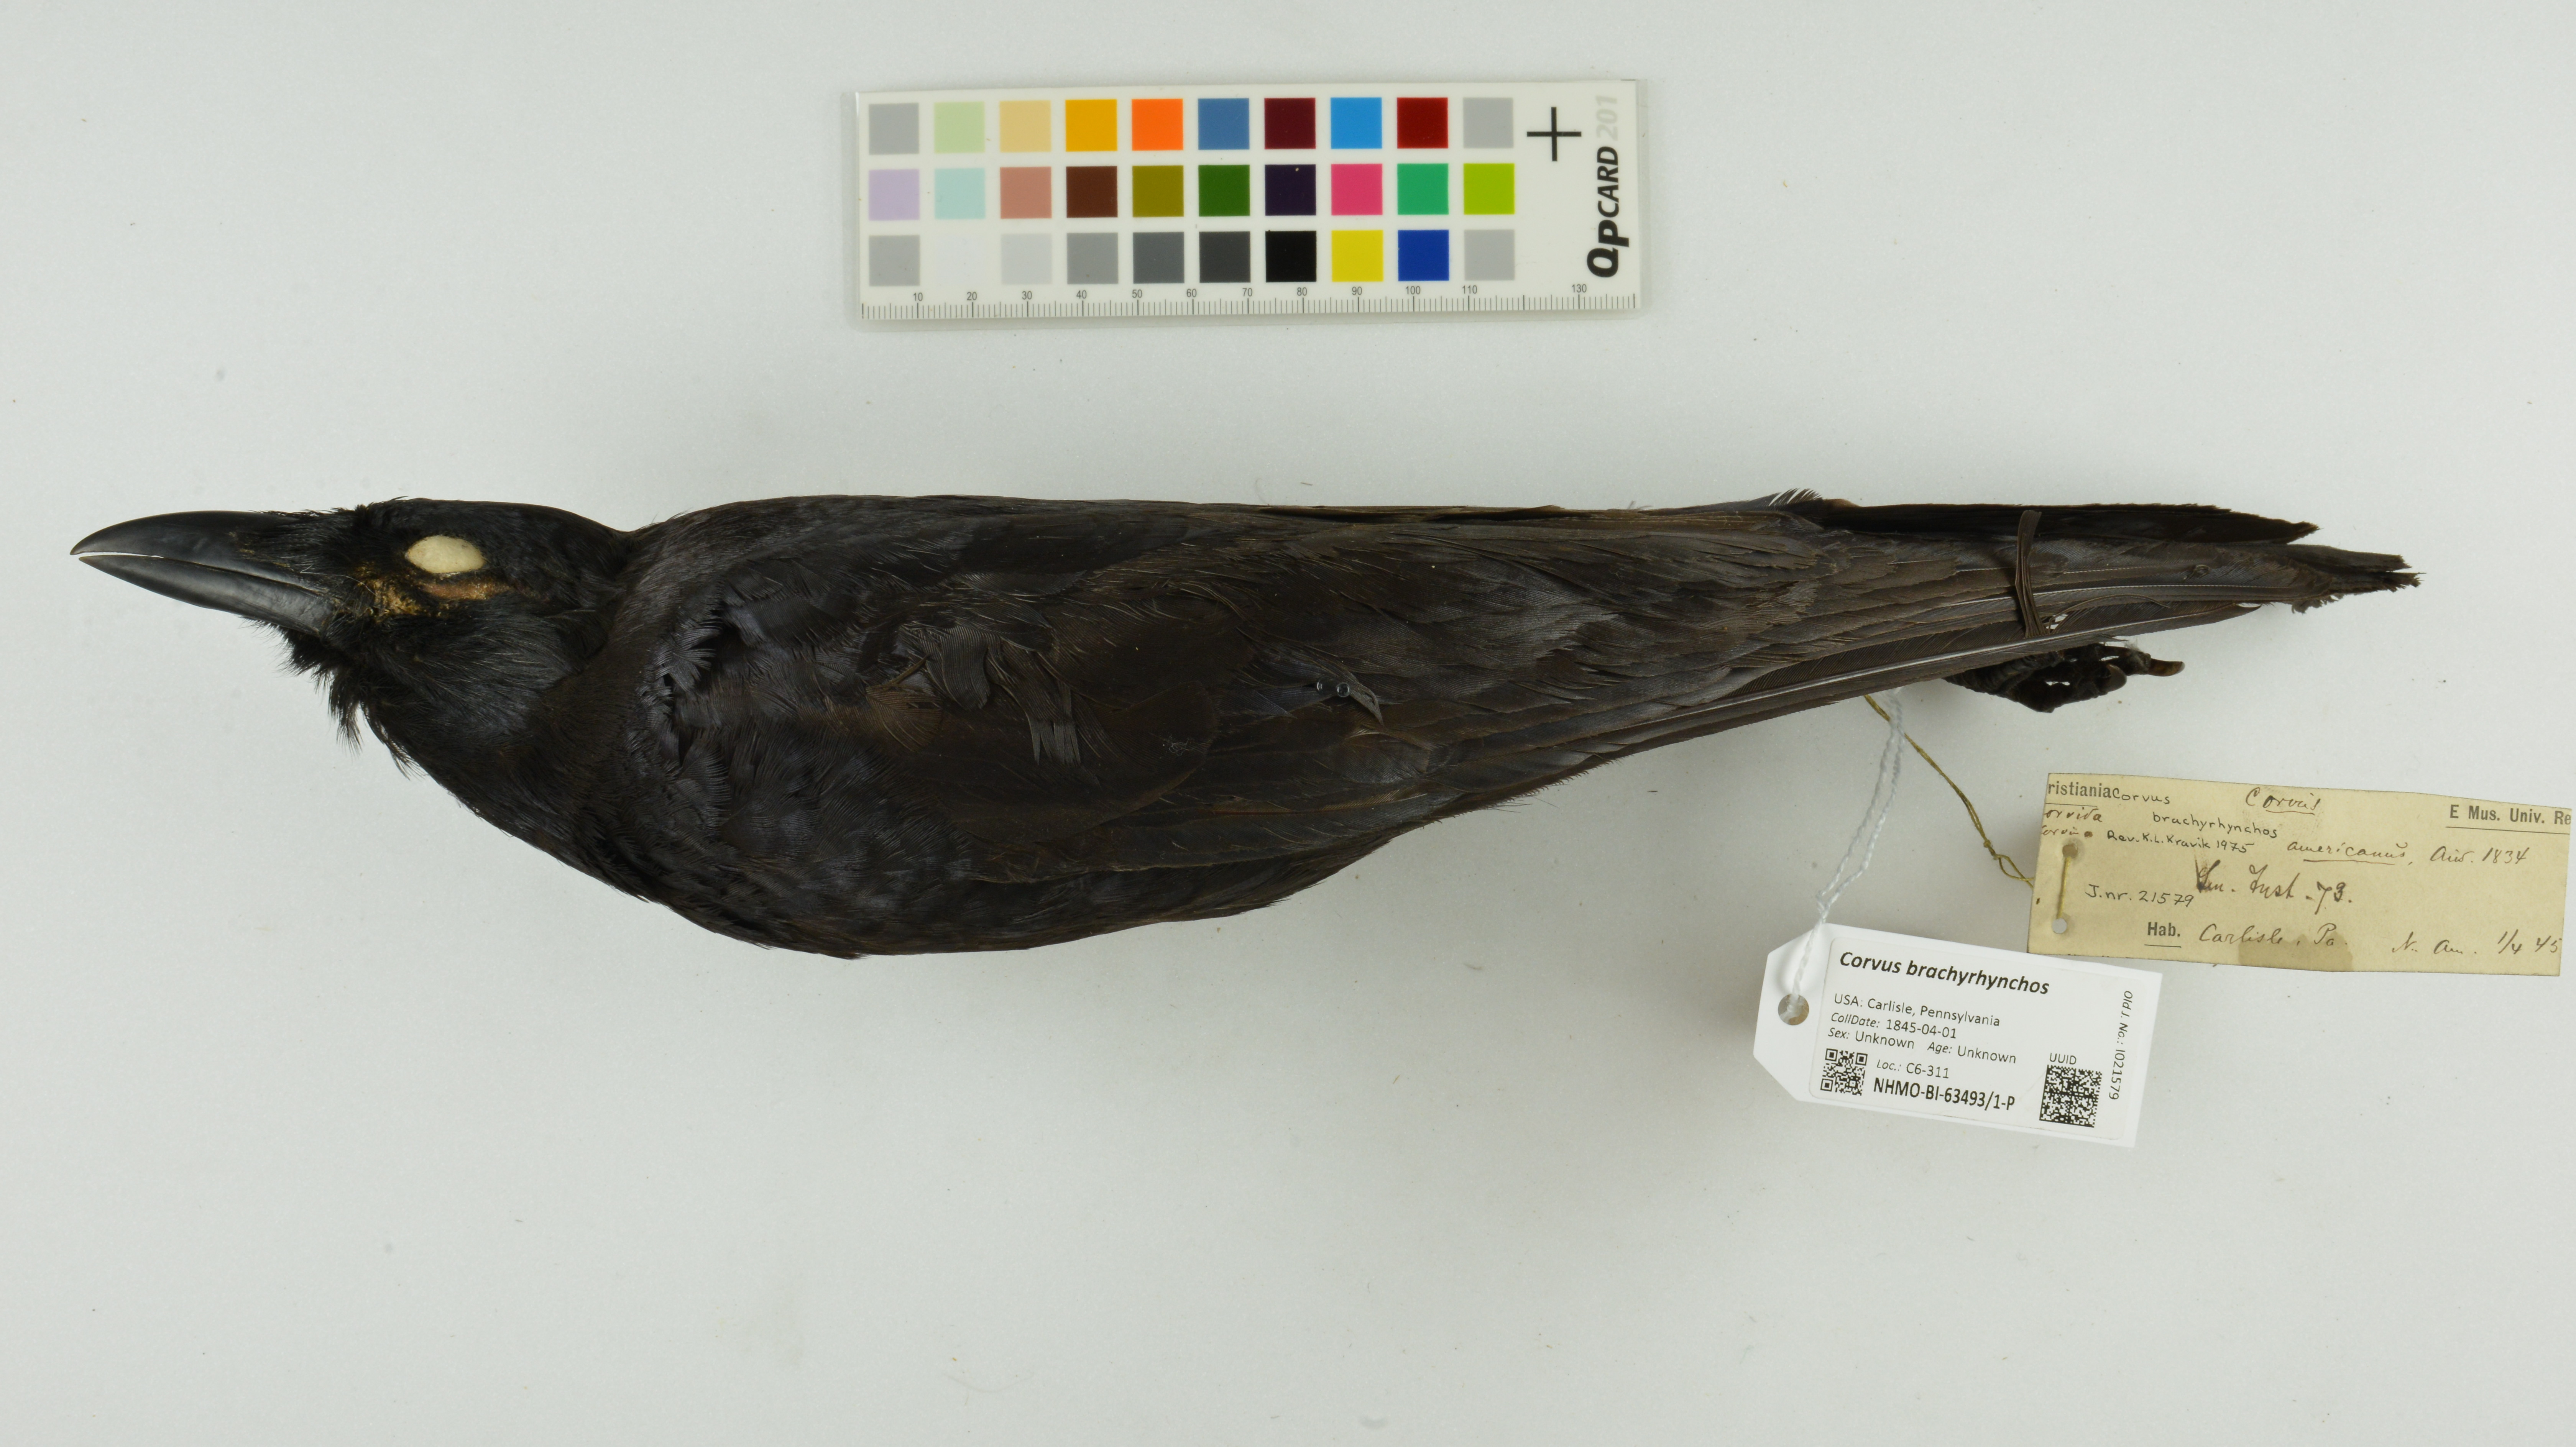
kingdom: Animalia
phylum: Chordata
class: Aves
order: Passeriformes
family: Corvidae
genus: Corvus
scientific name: Corvus brachyrhynchos
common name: American crow
